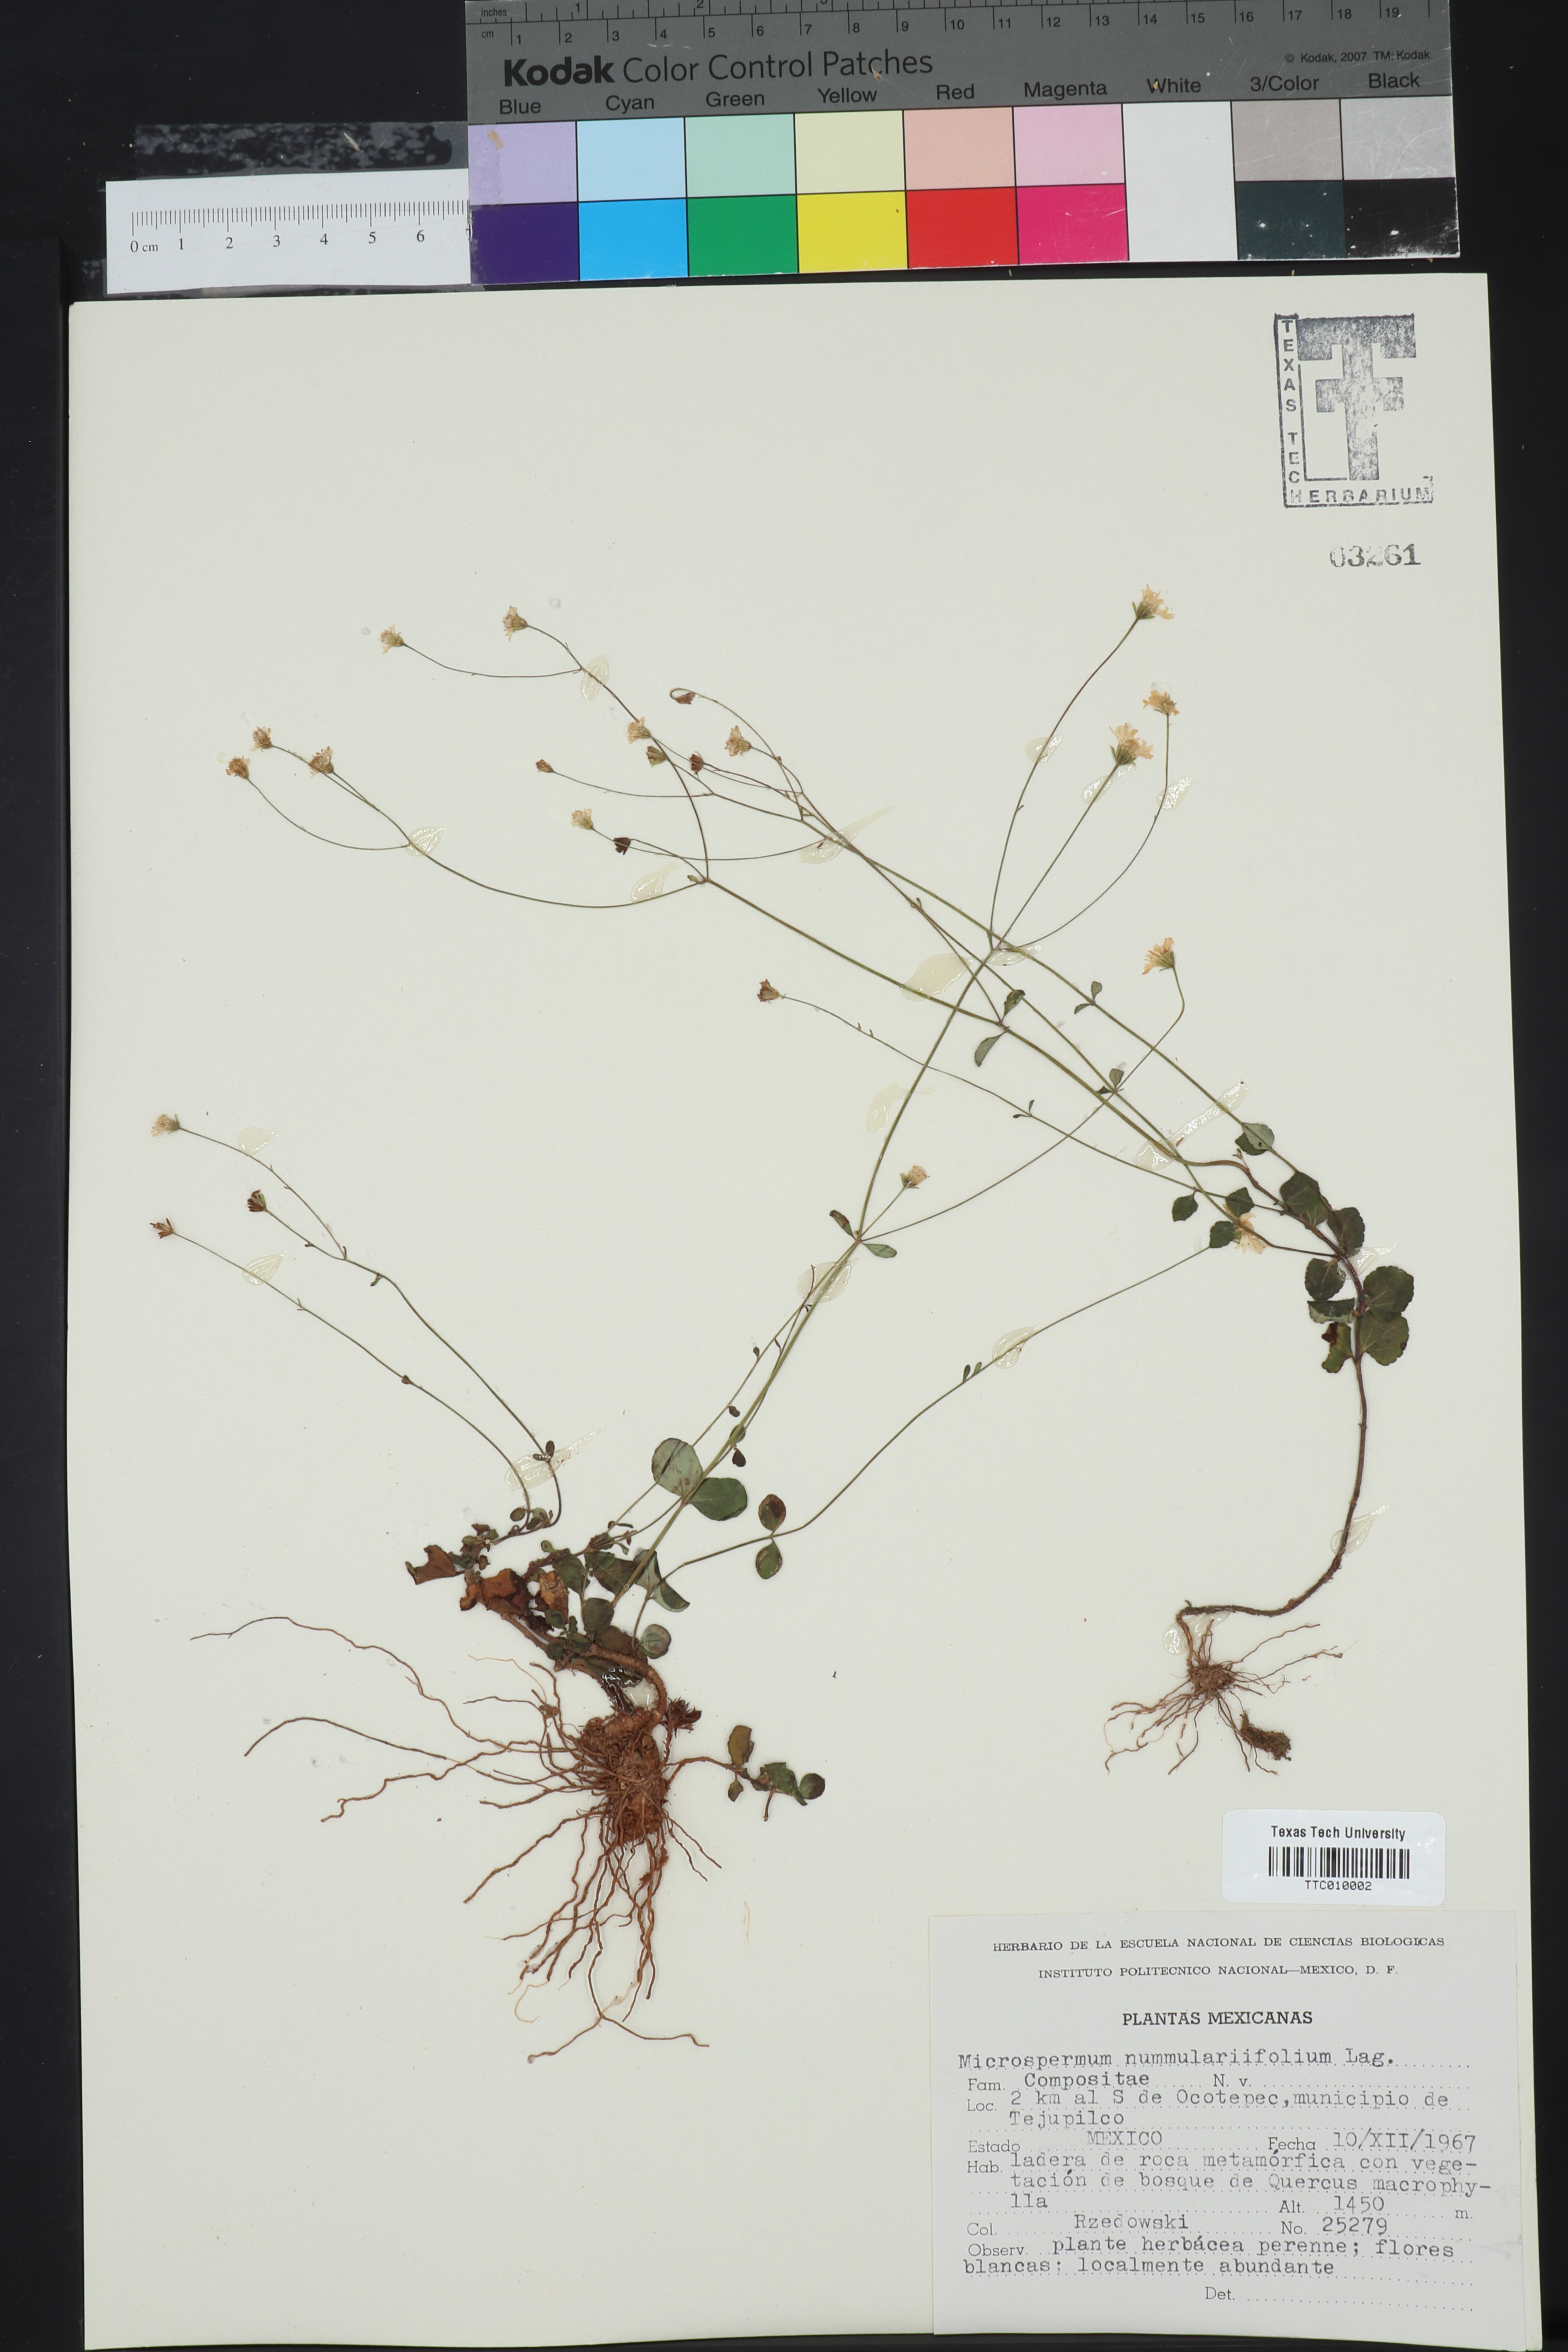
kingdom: Plantae
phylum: Tracheophyta
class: Magnoliopsida
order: Asterales
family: Asteraceae
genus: Microspermum
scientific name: Microspermum nummulariifolium
